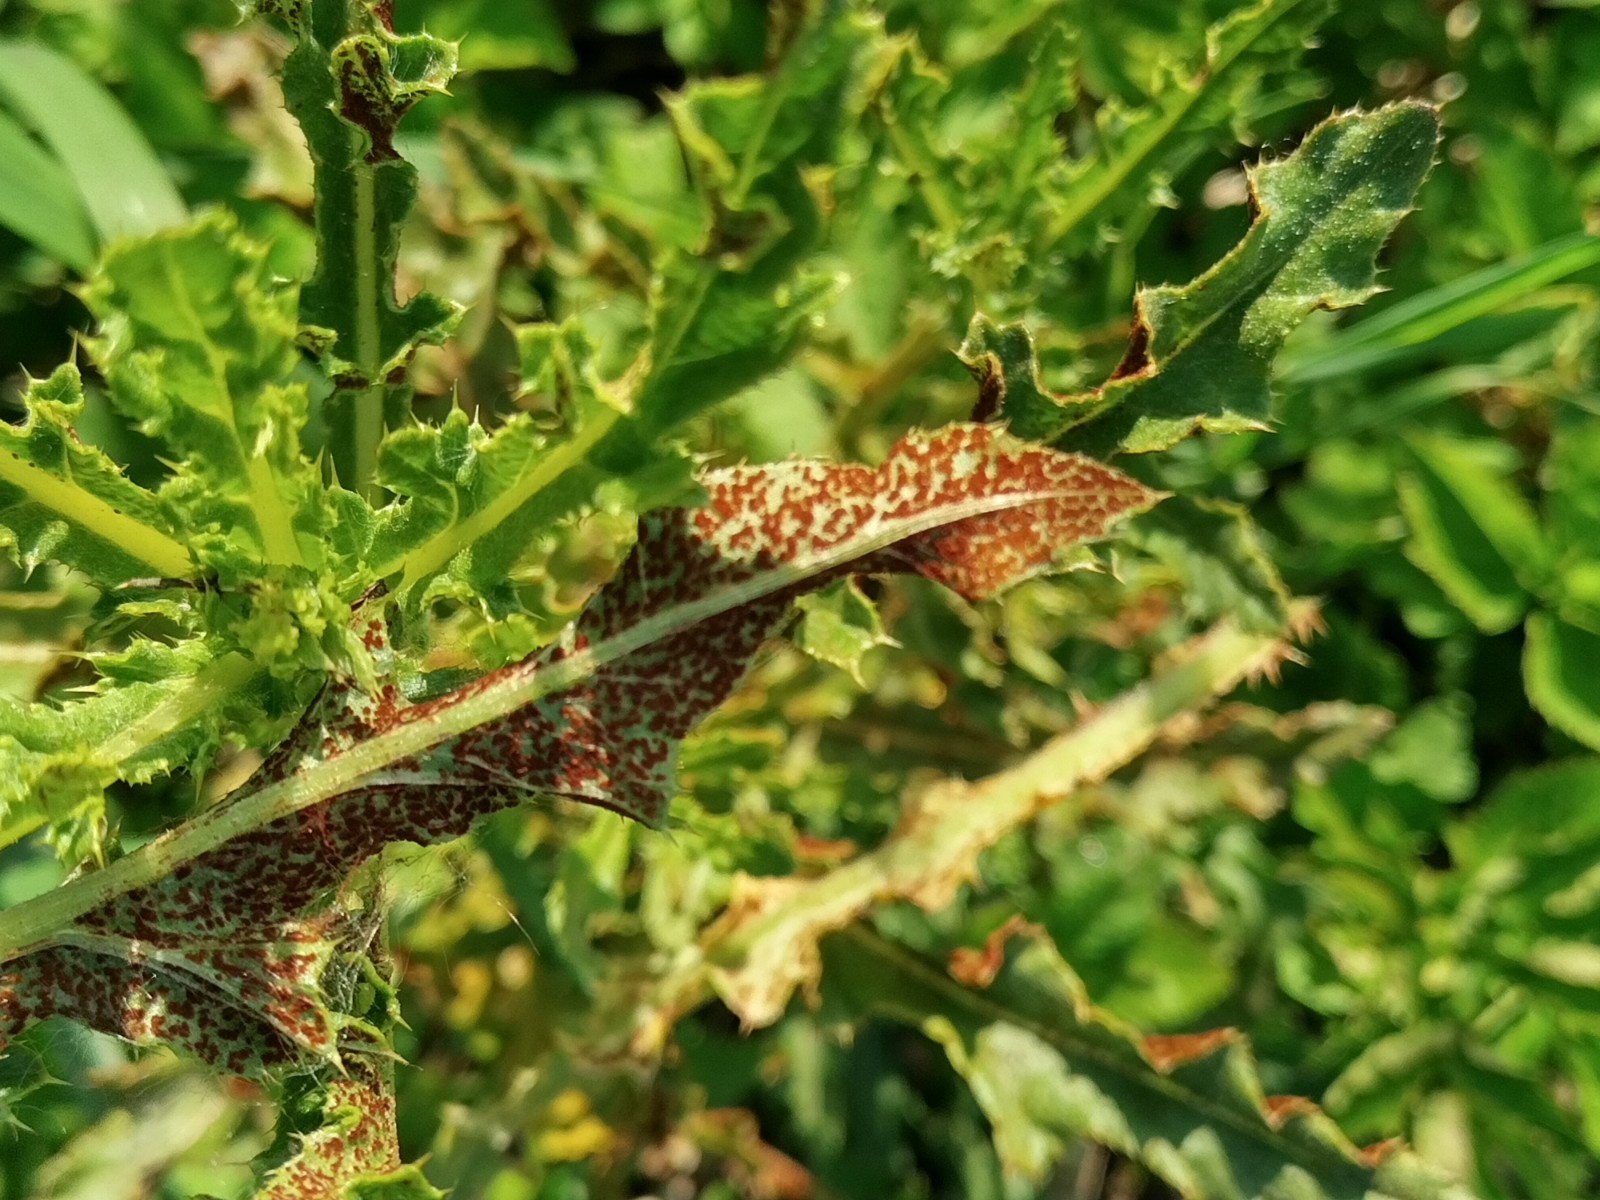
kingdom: Fungi
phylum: Basidiomycota
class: Pucciniomycetes
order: Pucciniales
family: Pucciniaceae
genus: Puccinia
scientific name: Puccinia suaveolens
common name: tidsel-tvecellerust
